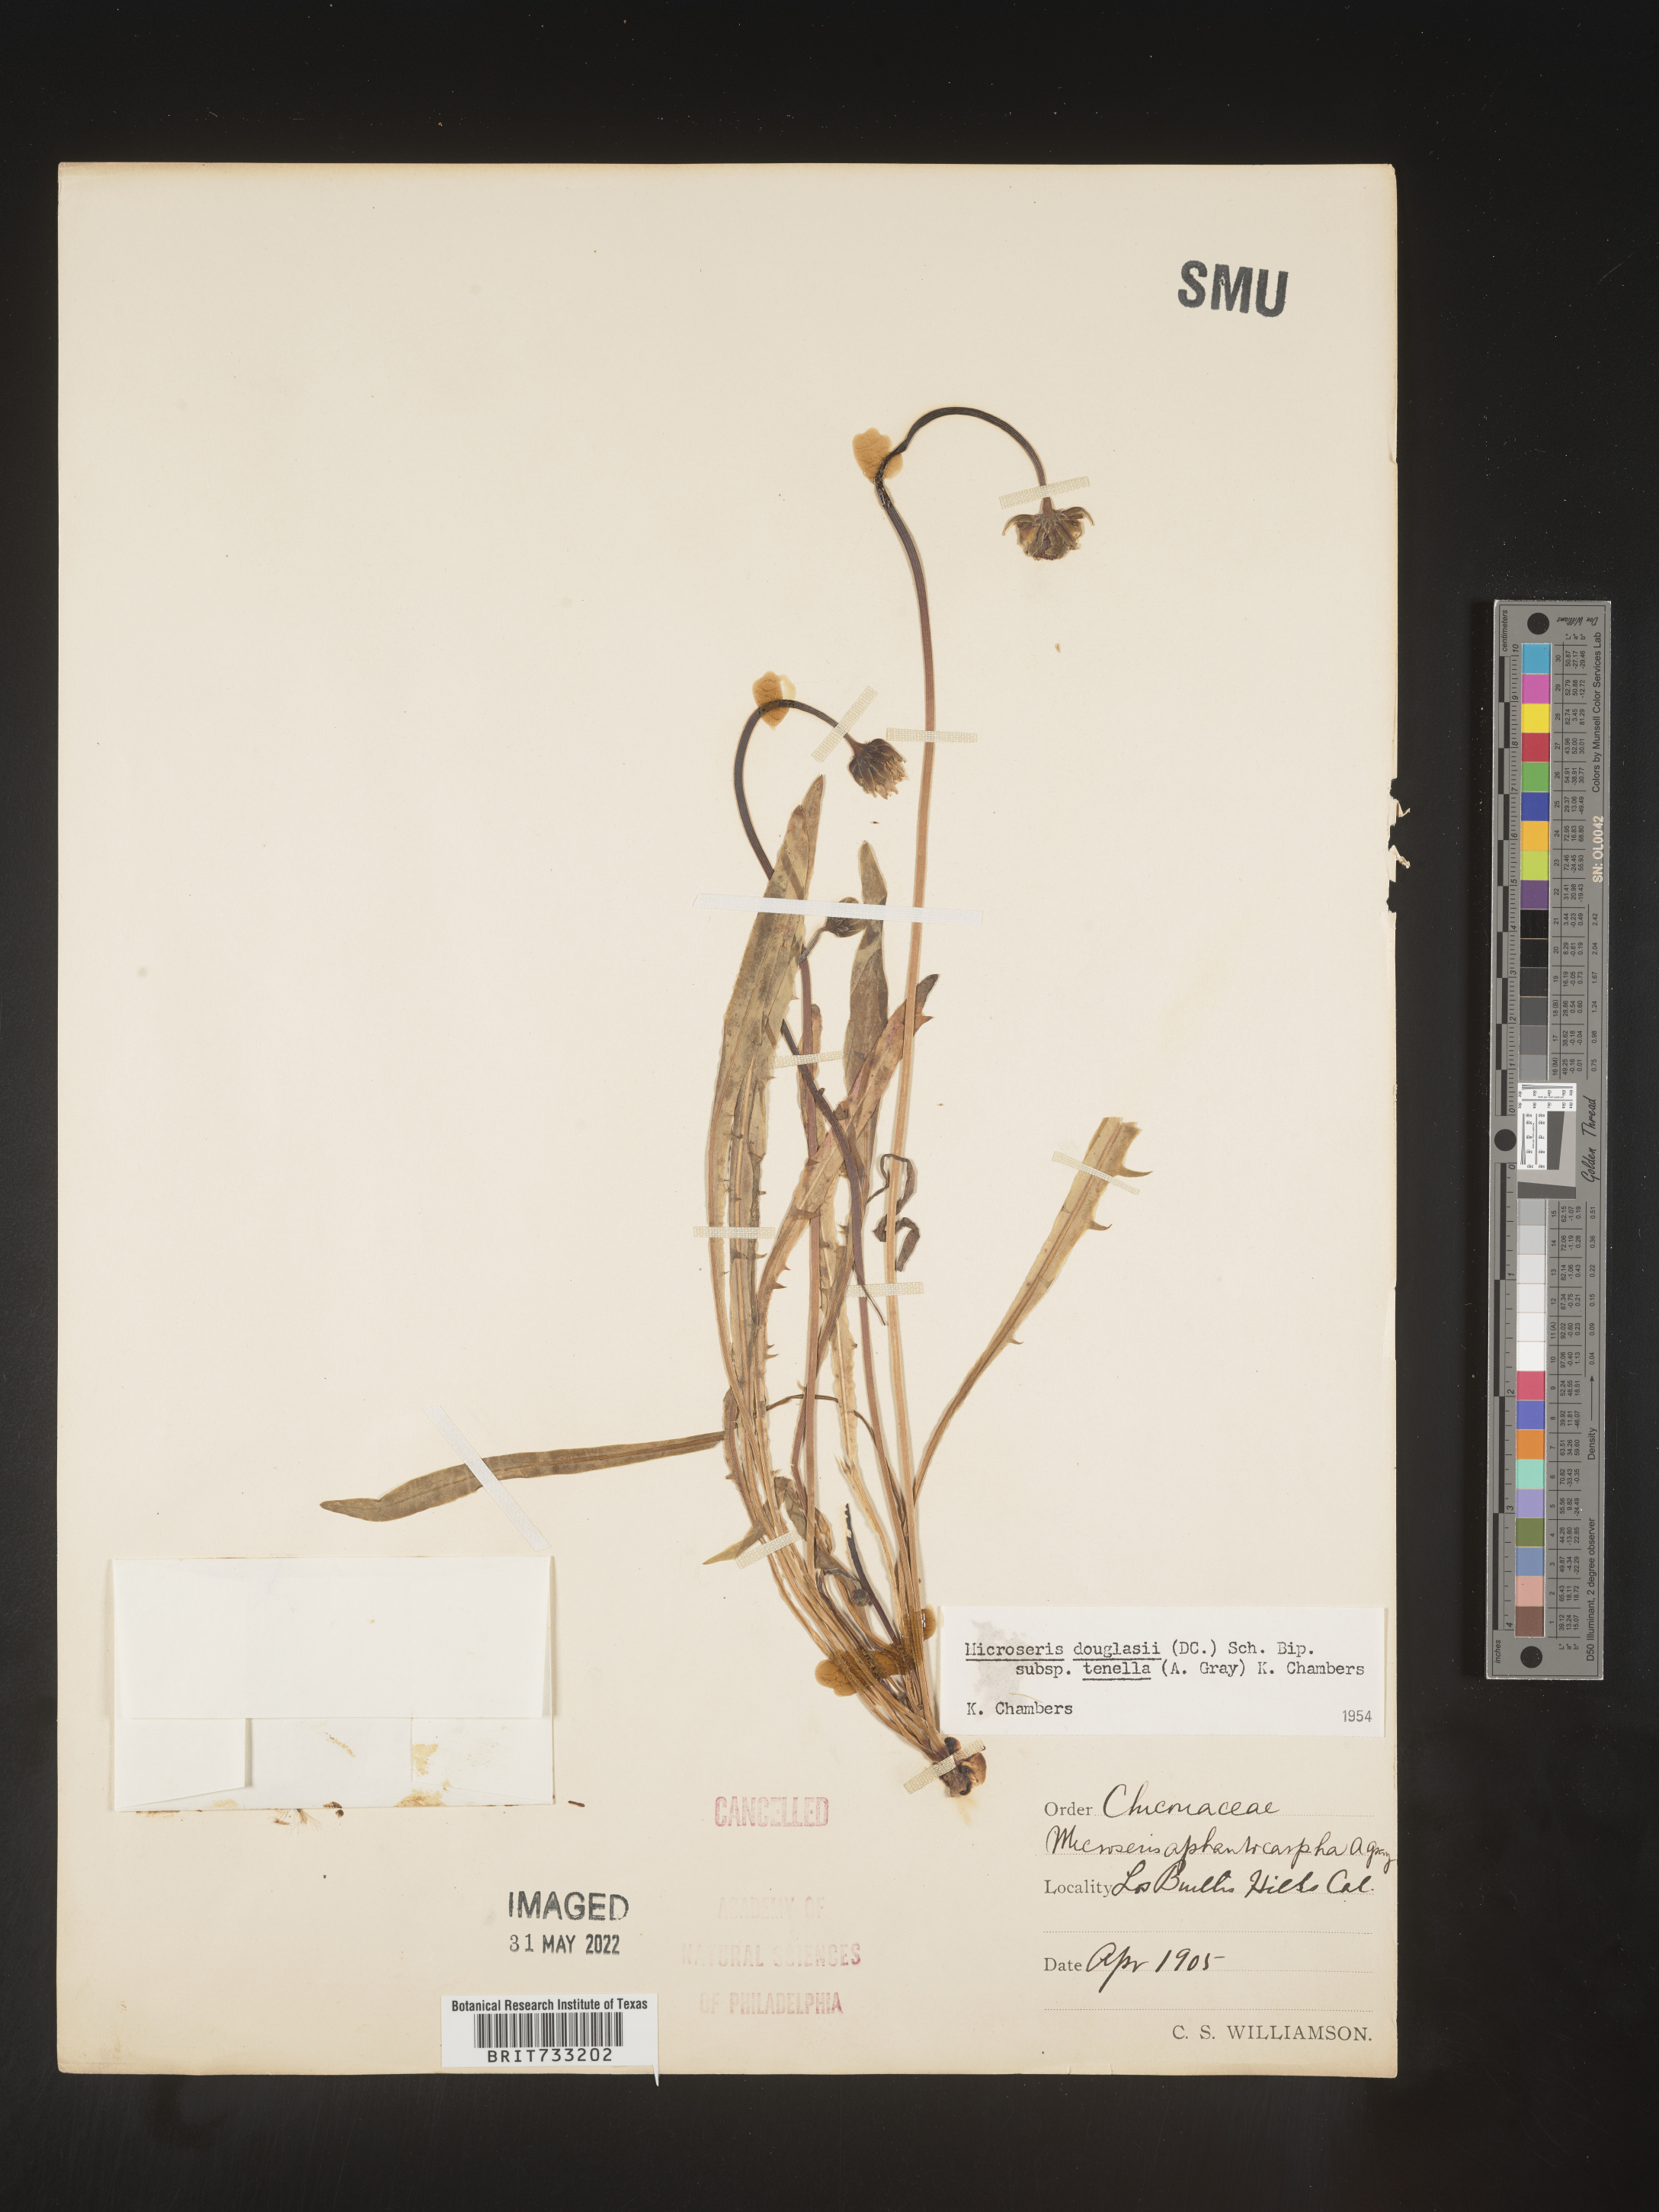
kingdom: Plantae
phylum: Tracheophyta
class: Magnoliopsida
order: Asterales
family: Asteraceae
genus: Microseris
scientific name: Microseris douglasii
